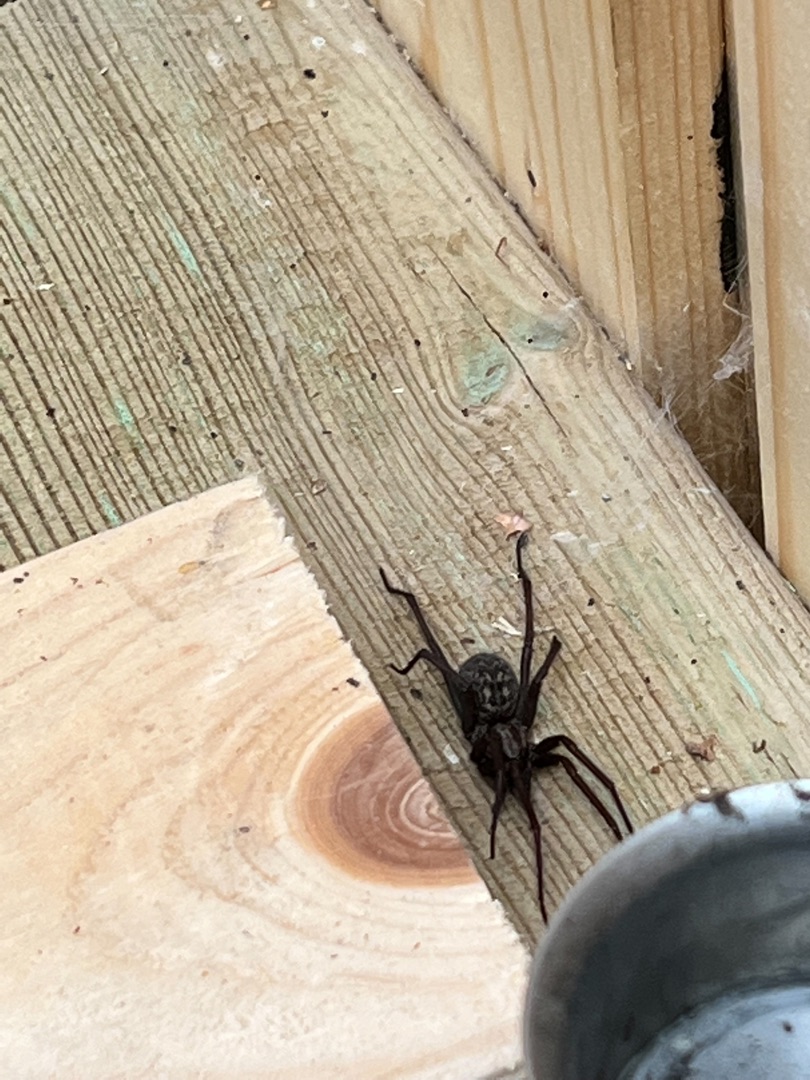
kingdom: Animalia
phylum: Arthropoda
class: Arachnida
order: Araneae
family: Agelenidae
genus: Eratigena
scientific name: Eratigena atrica
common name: Stor husedderkop
